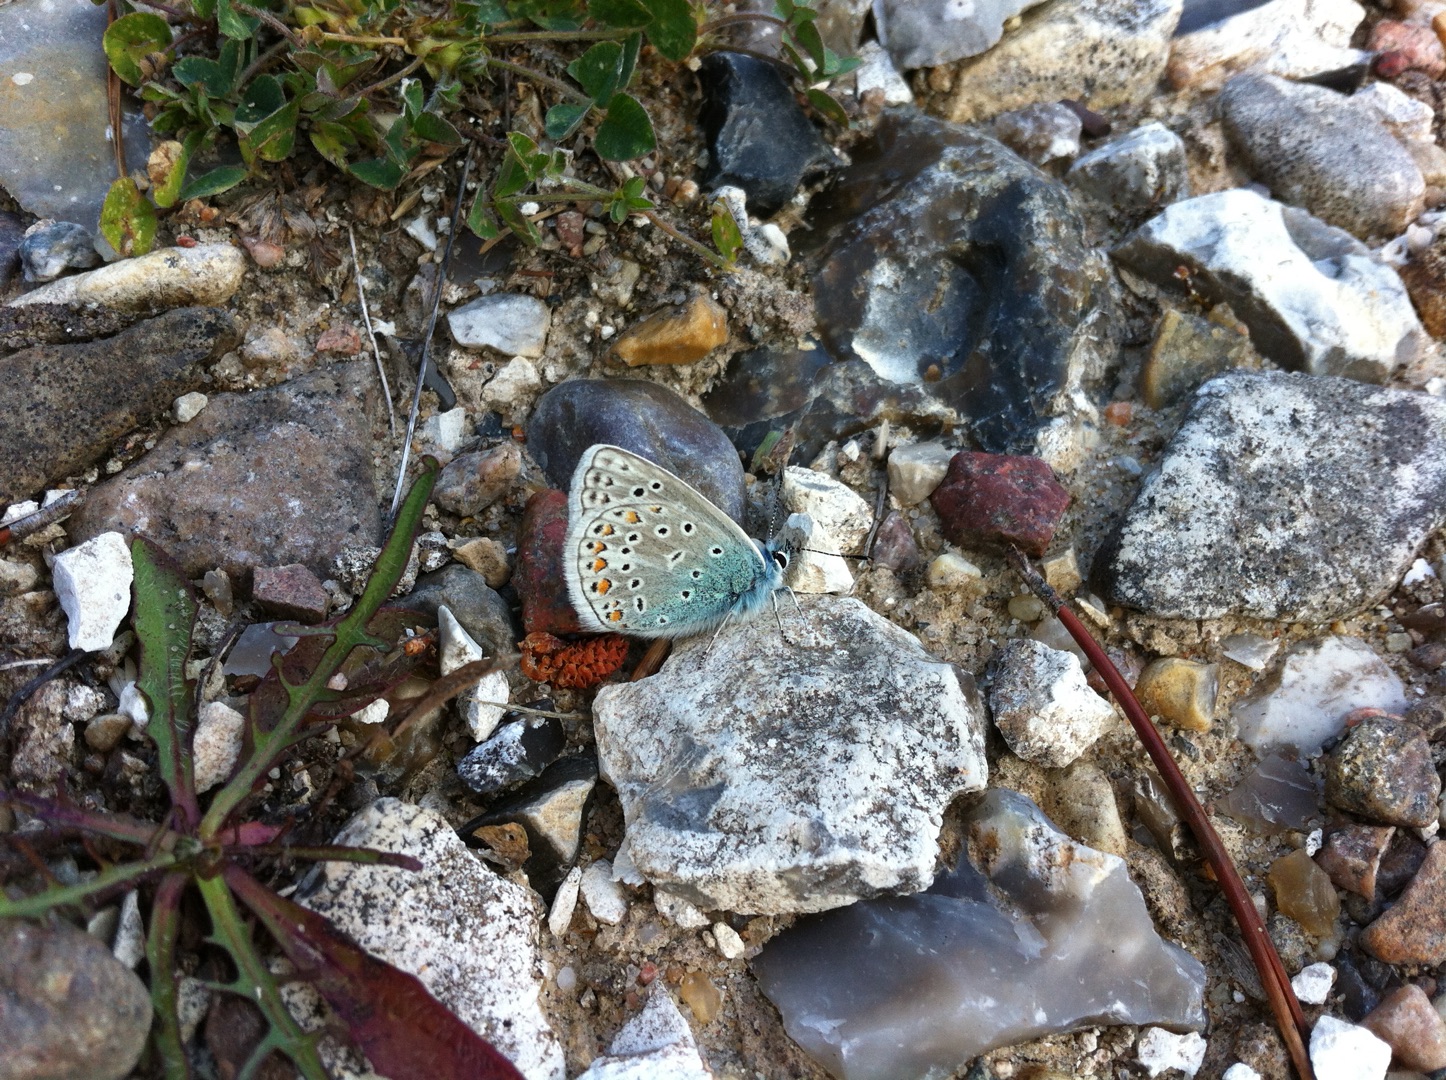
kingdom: Animalia
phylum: Arthropoda
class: Insecta
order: Lepidoptera
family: Lycaenidae
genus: Polyommatus
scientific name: Polyommatus icarus
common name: Almindelig blåfugl
